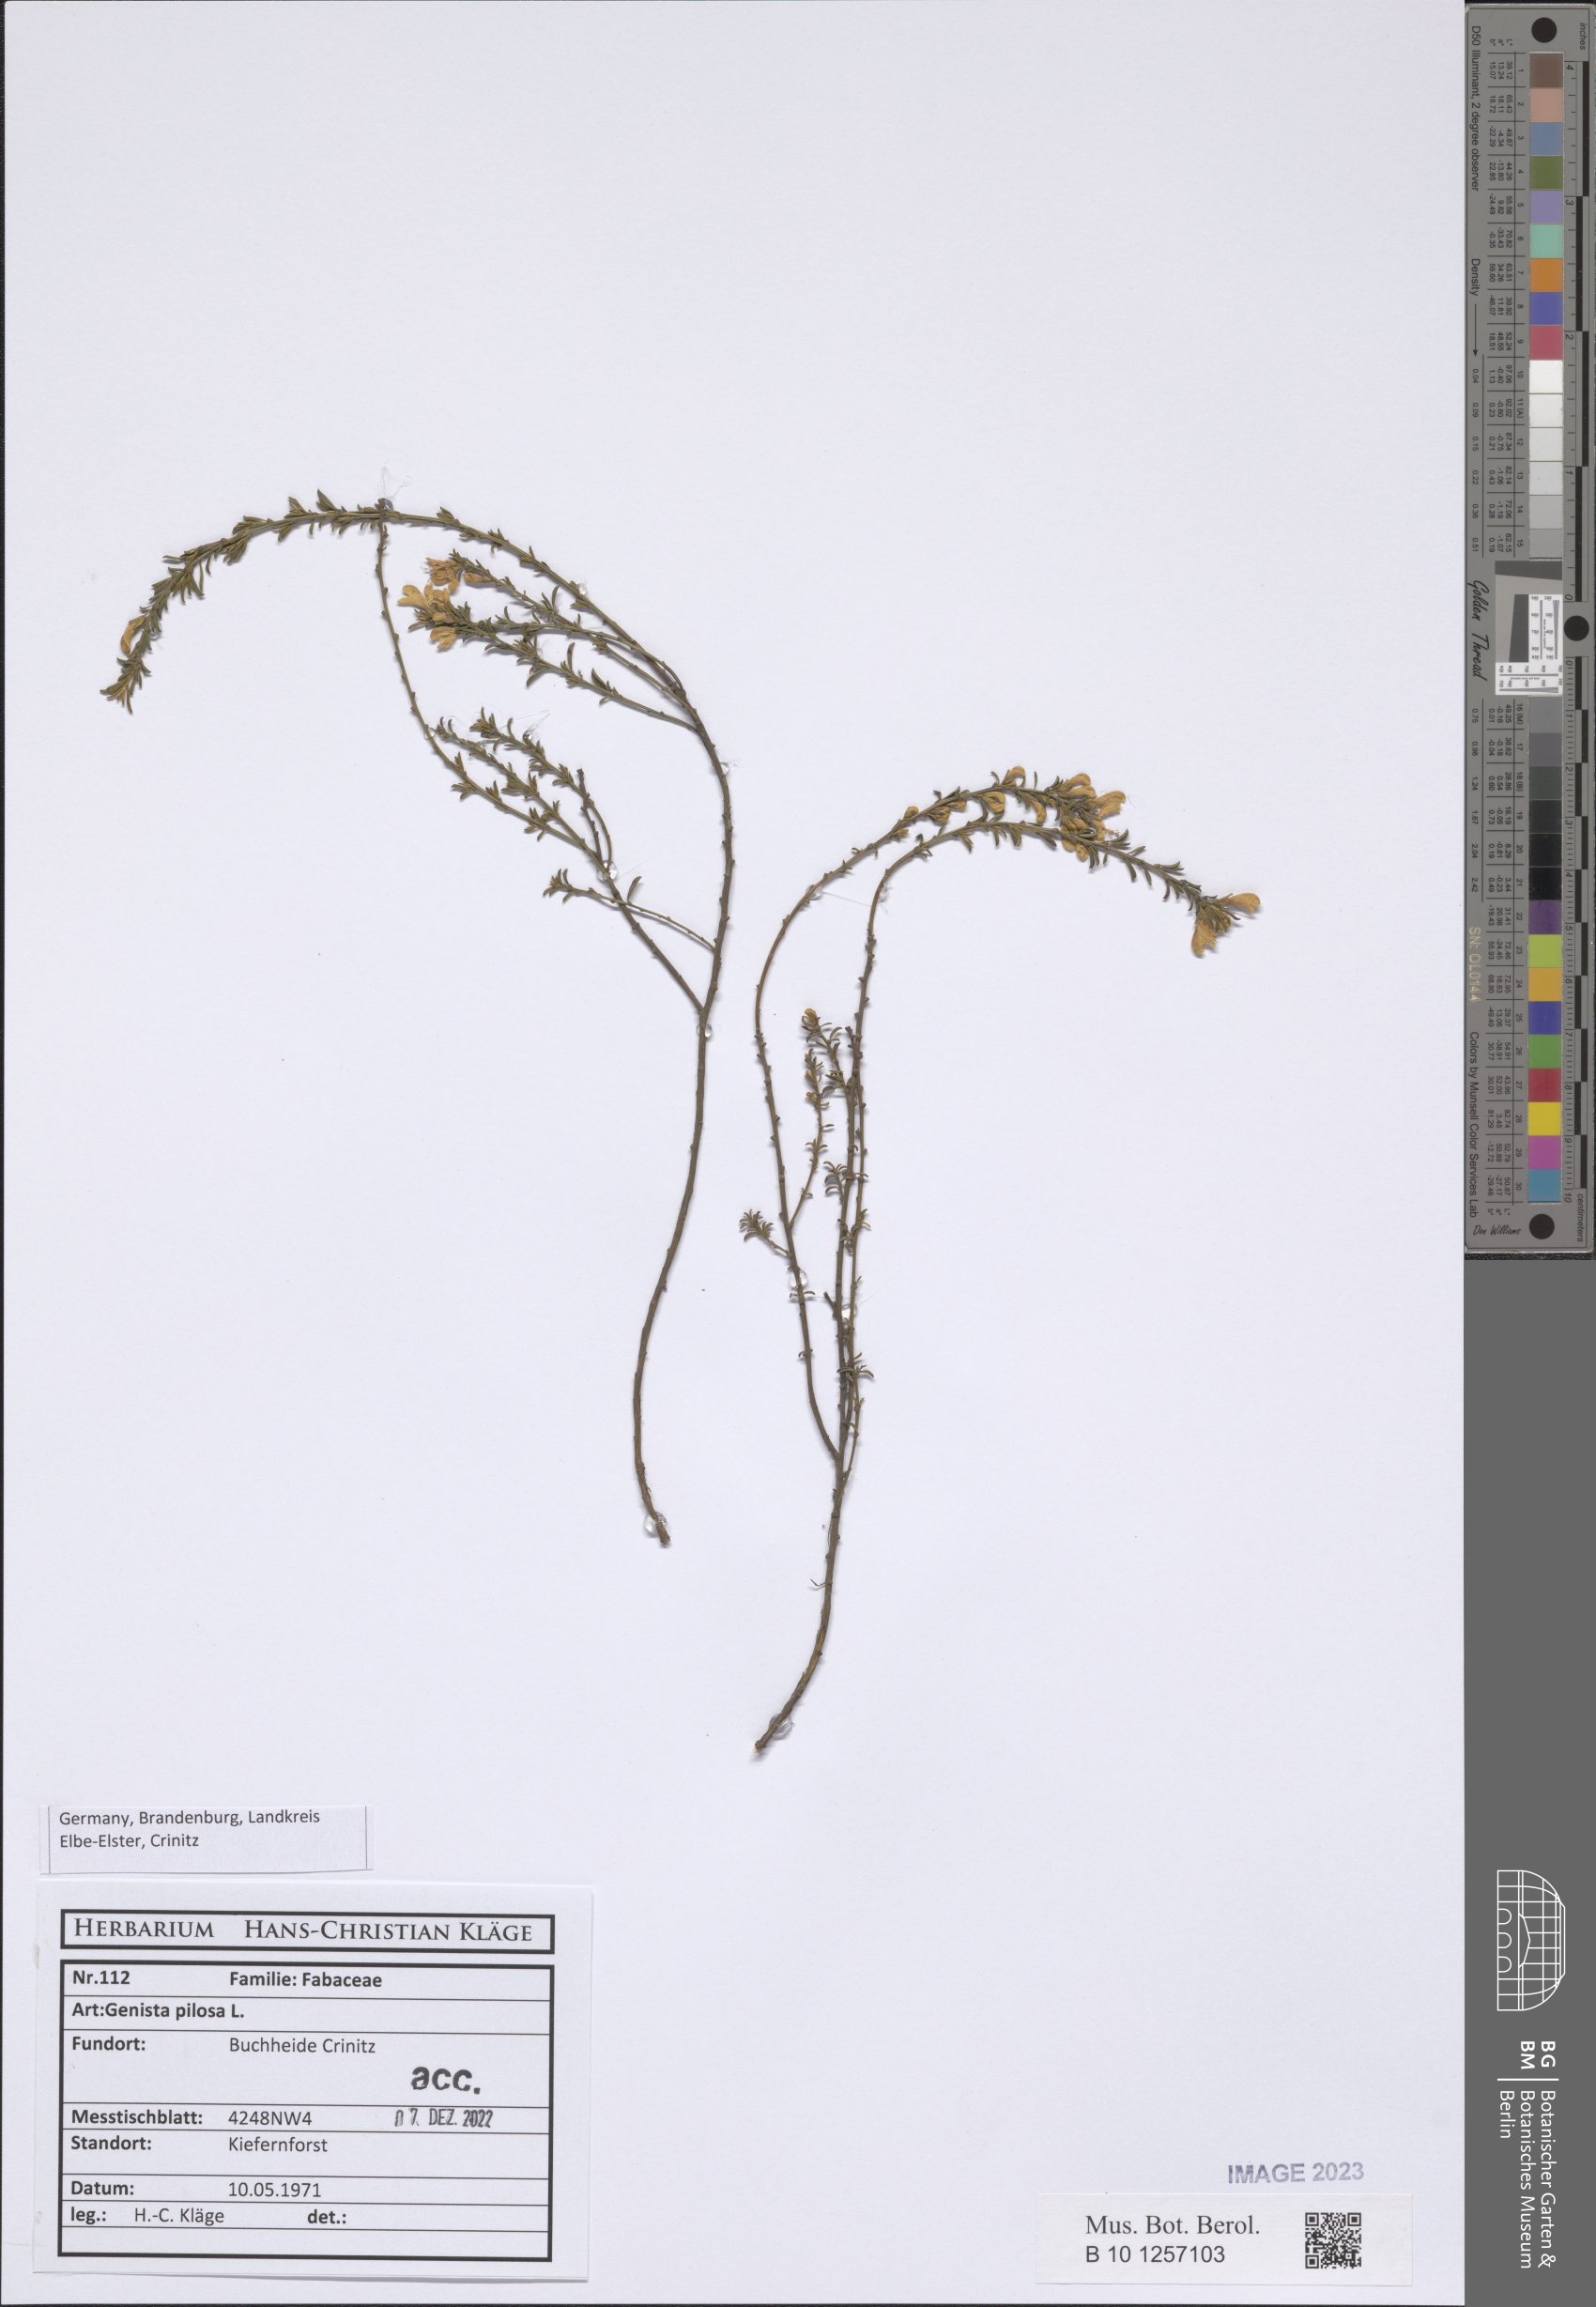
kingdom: Plantae
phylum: Tracheophyta
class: Magnoliopsida
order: Fabales
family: Fabaceae
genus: Genista
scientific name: Genista pilosa
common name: Hairy greenweed
